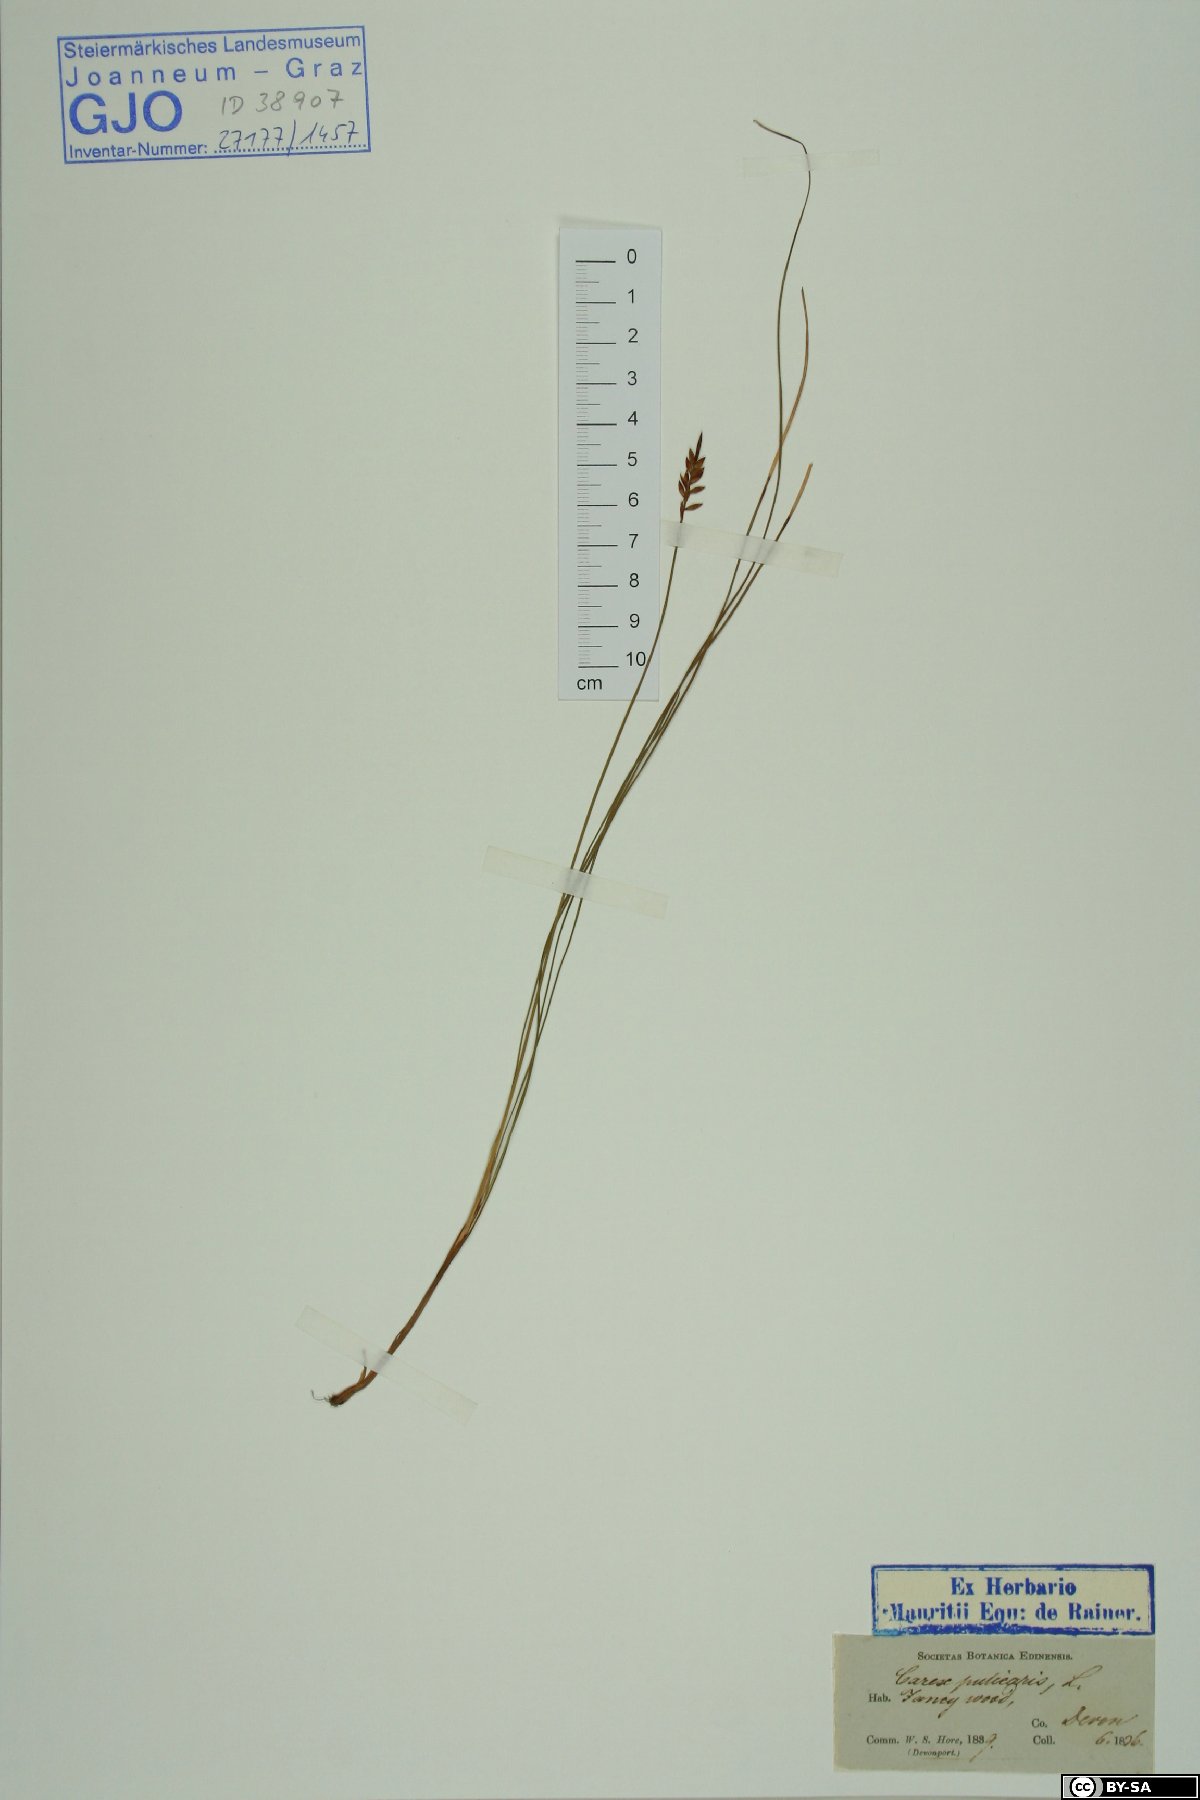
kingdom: Plantae
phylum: Tracheophyta
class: Liliopsida
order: Poales
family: Cyperaceae
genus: Carex
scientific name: Carex pulicaris
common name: Flea sedge
